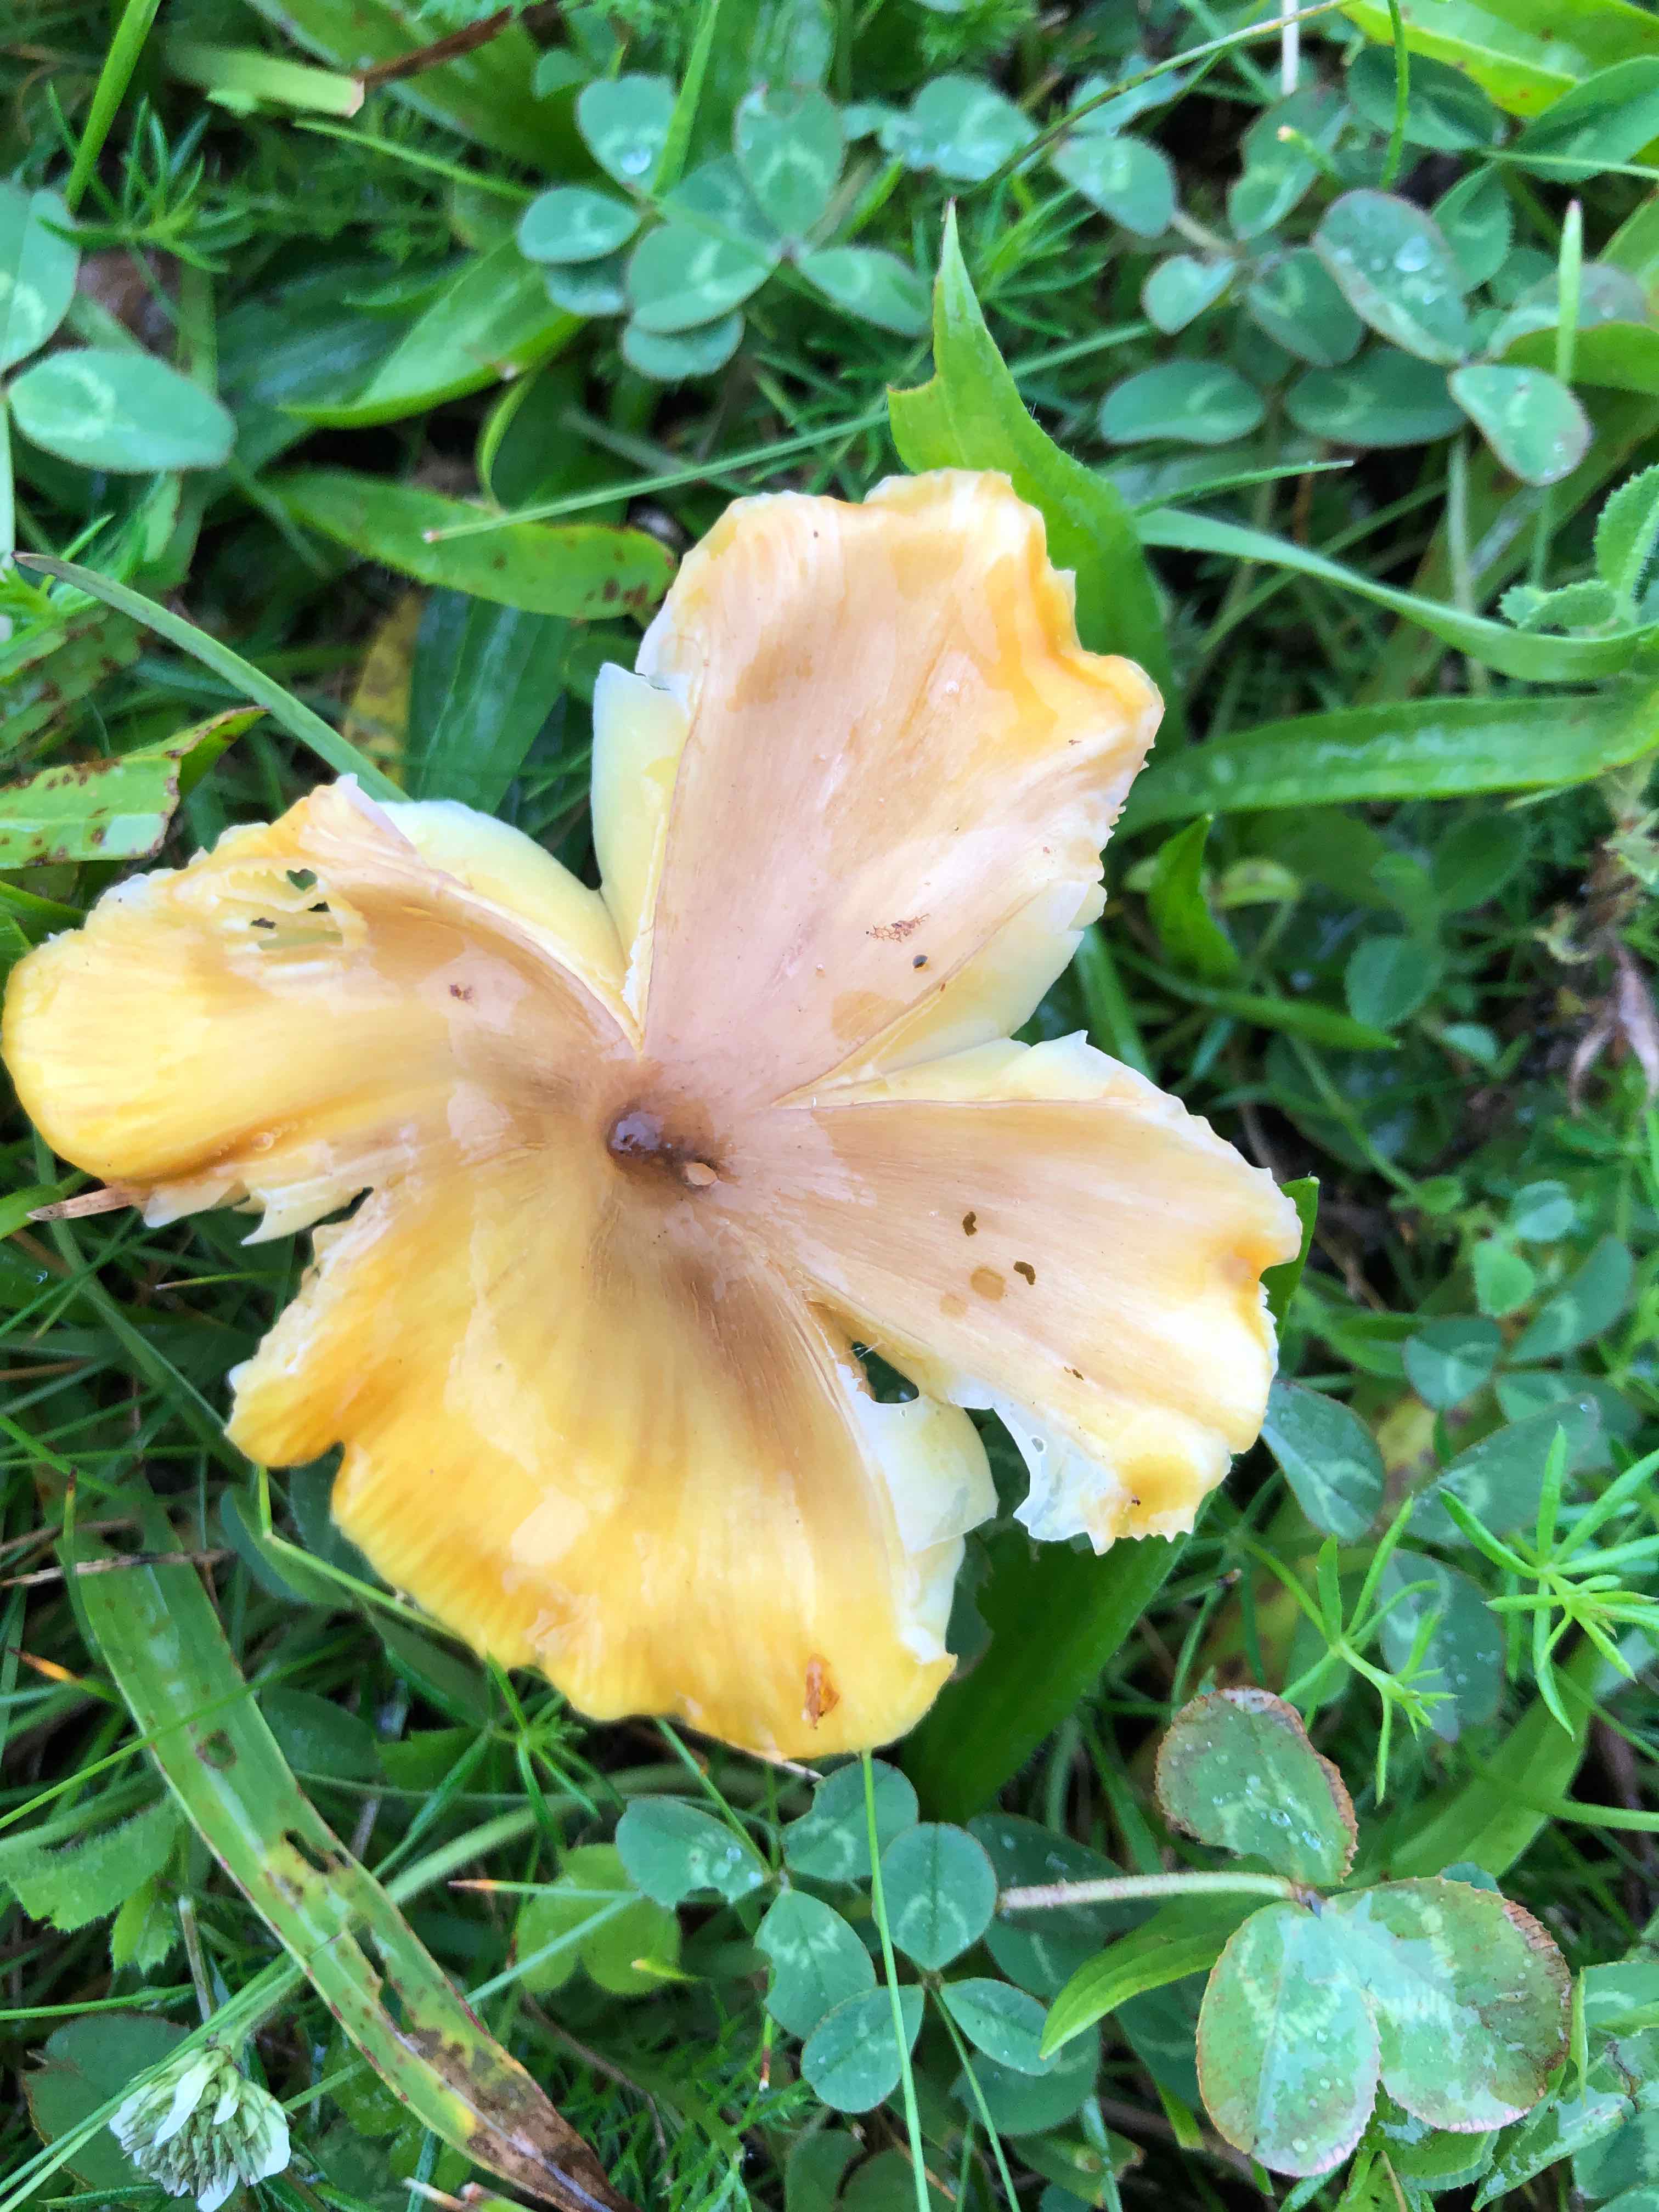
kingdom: Fungi
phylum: Basidiomycota
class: Agaricomycetes
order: Agaricales
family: Hygrophoraceae
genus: Hygrocybe
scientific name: Hygrocybe acutoconica
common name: spidspuklet vokshat
